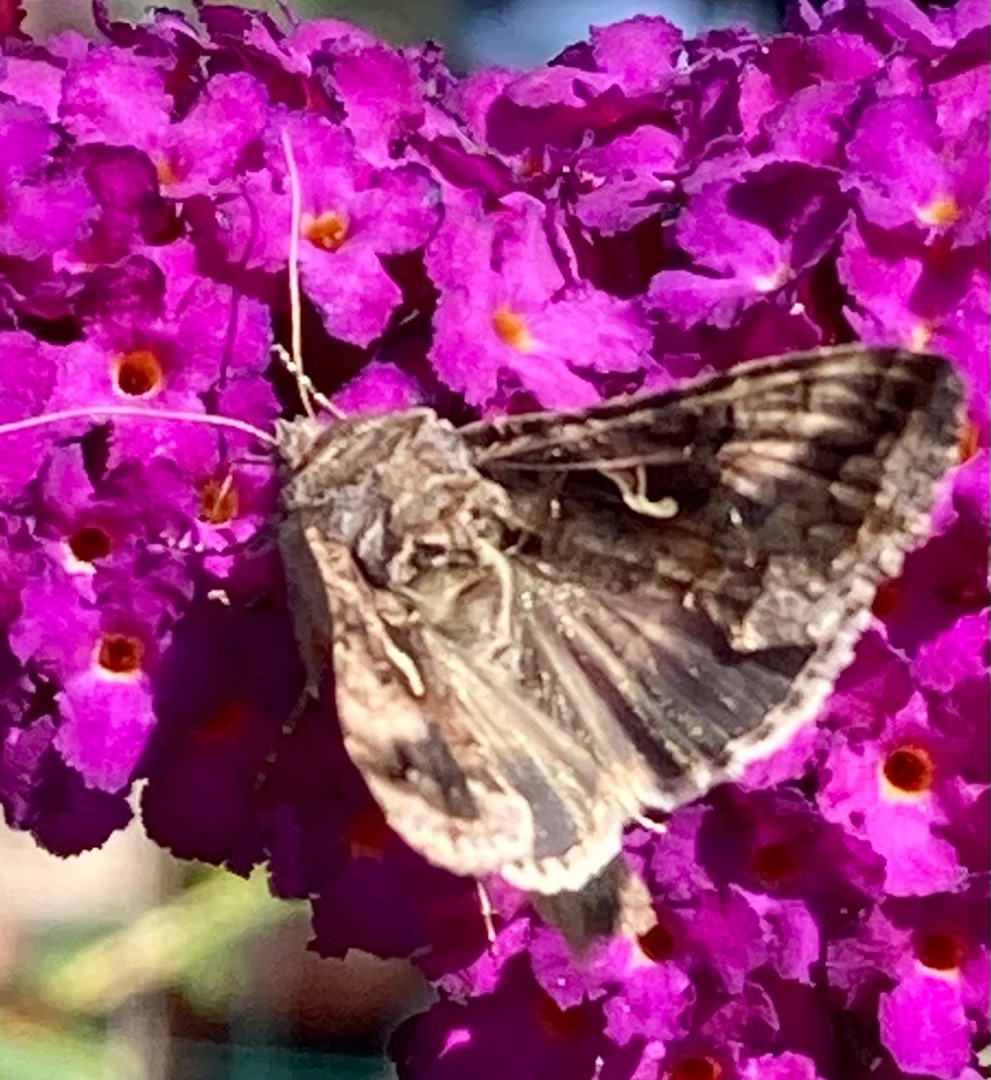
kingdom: Animalia
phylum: Arthropoda
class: Insecta
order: Lepidoptera
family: Noctuidae
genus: Autographa
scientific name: Autographa gamma
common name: Gammaugle
